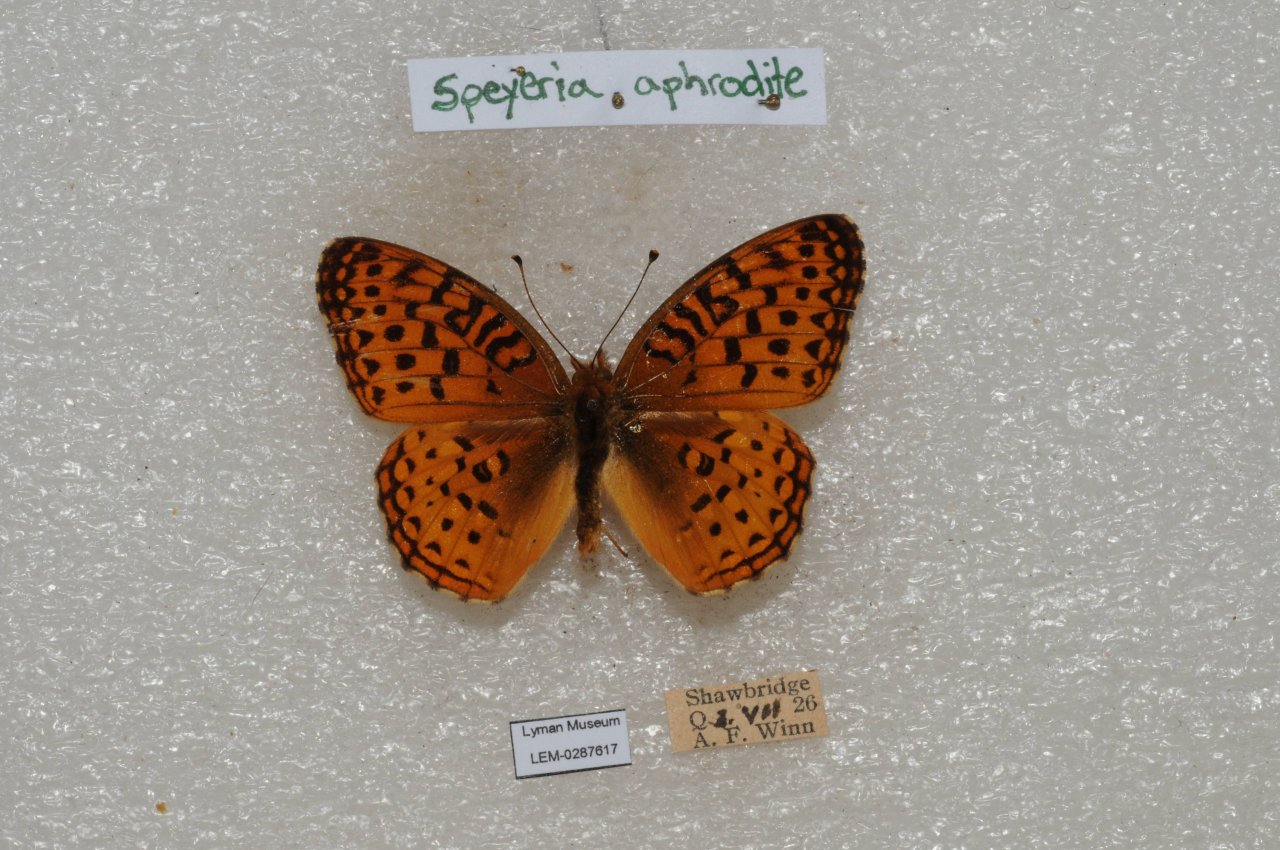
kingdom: Animalia
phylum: Arthropoda
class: Insecta
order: Lepidoptera
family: Nymphalidae
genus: Speyeria
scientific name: Speyeria aphrodite
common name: Aphrodite Fritillary
